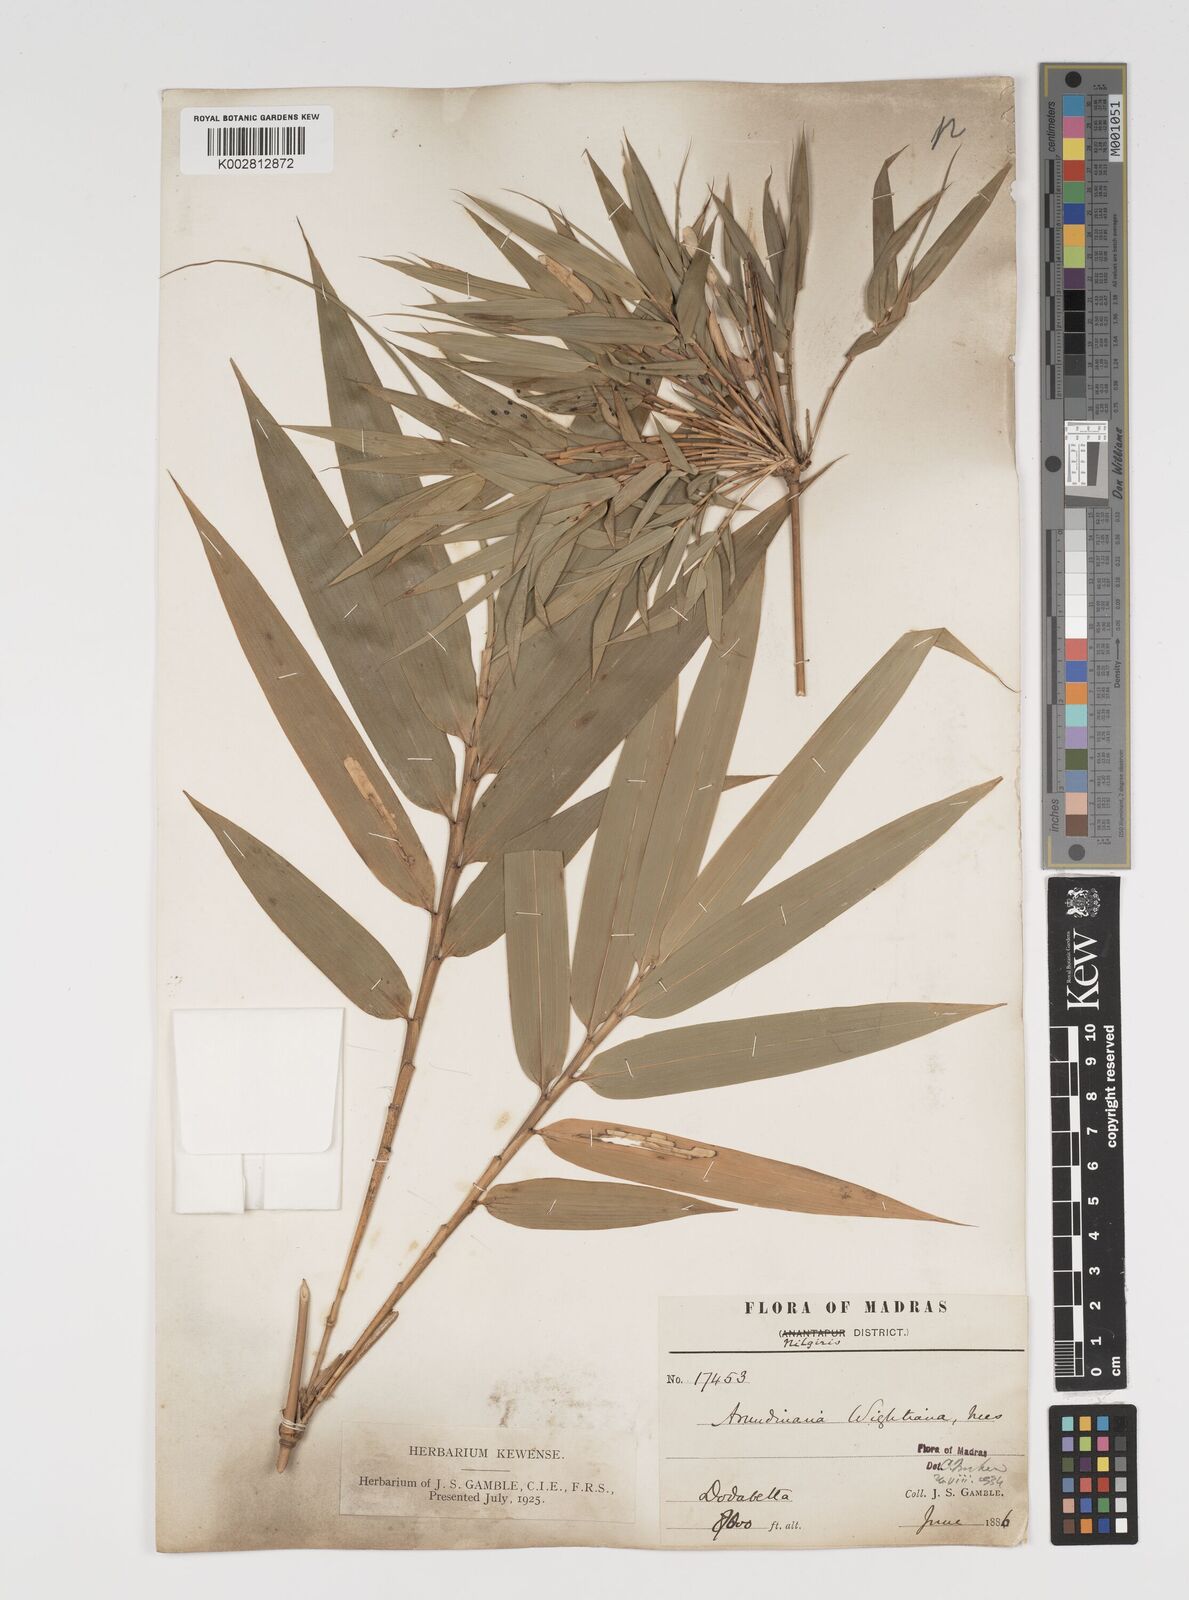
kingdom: Plantae
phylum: Tracheophyta
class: Liliopsida
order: Poales
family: Poaceae
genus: Kuruna
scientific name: Kuruna wightiana
